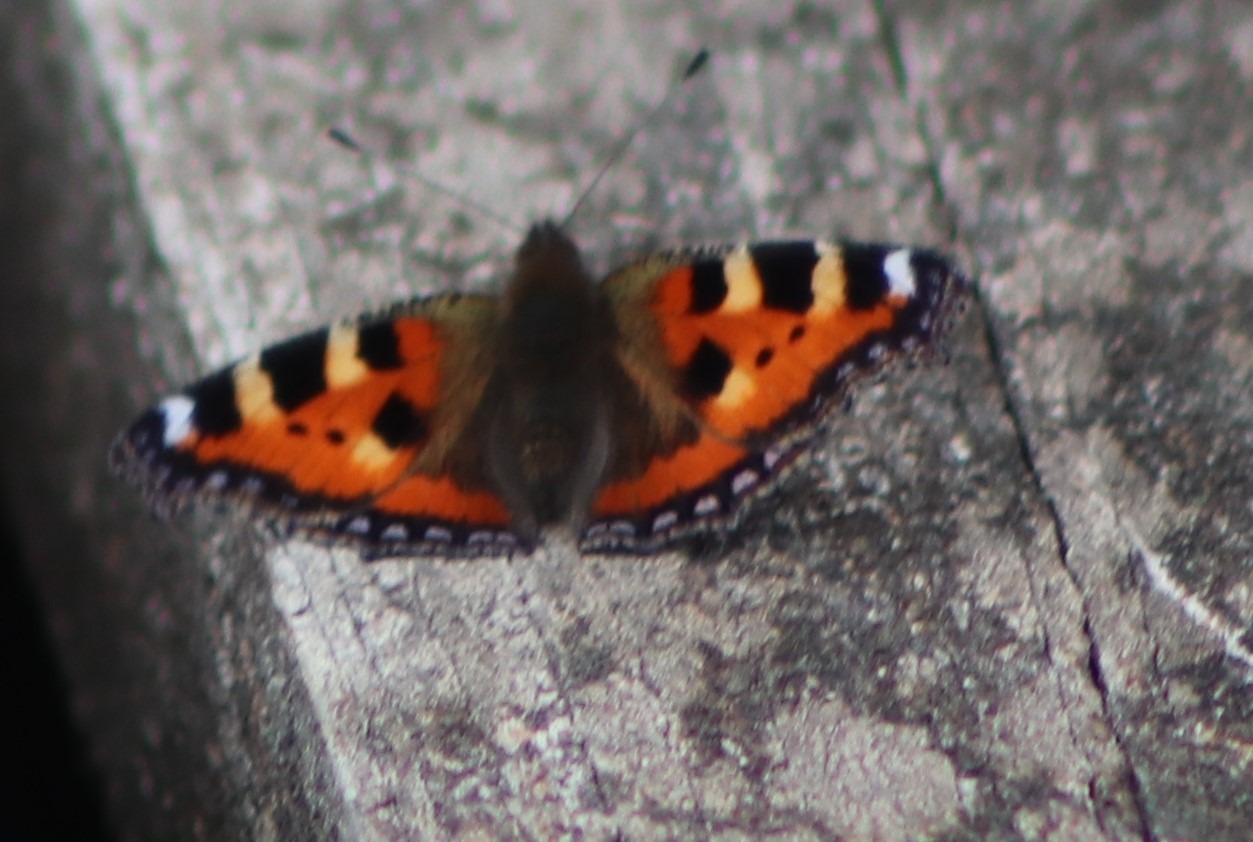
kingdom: Animalia
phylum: Arthropoda
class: Insecta
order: Lepidoptera
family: Nymphalidae
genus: Aglais
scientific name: Aglais urticae
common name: Nældens takvinge
